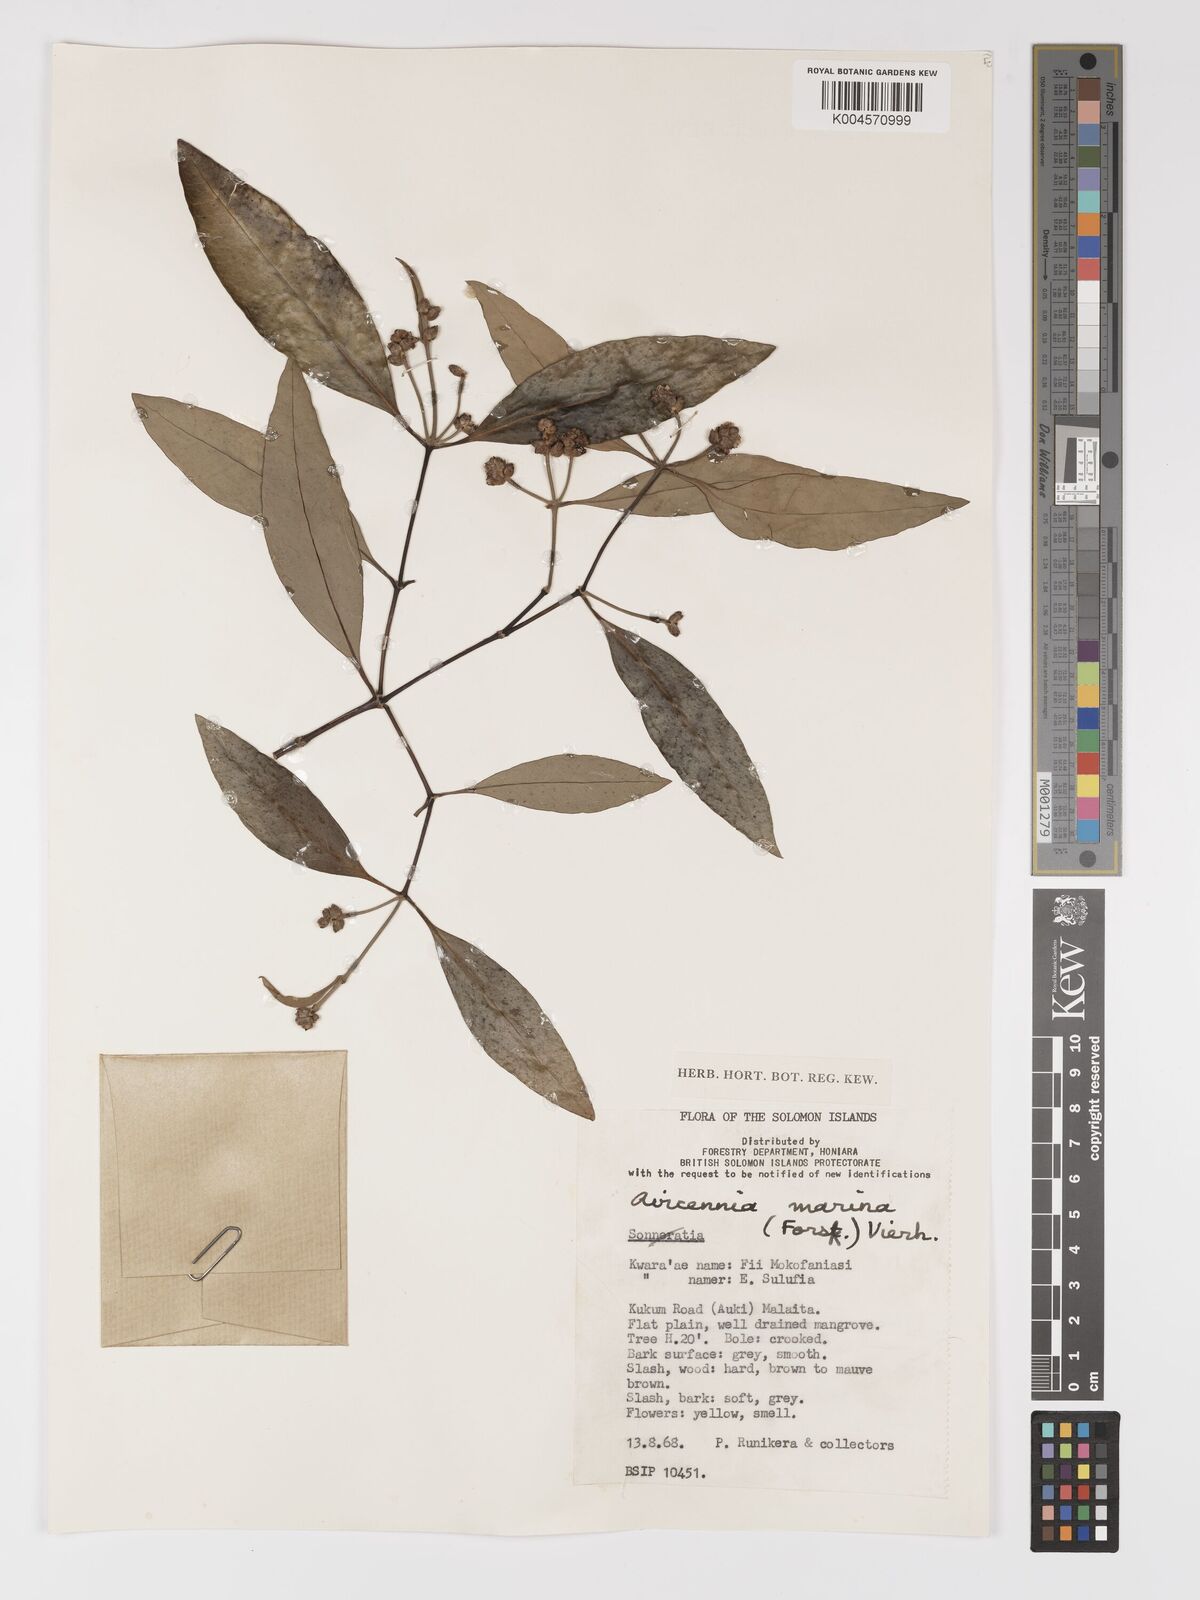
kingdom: Plantae
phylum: Tracheophyta
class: Magnoliopsida
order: Lamiales
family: Acanthaceae
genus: Avicennia
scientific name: Avicennia marina
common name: Gray mangrove
